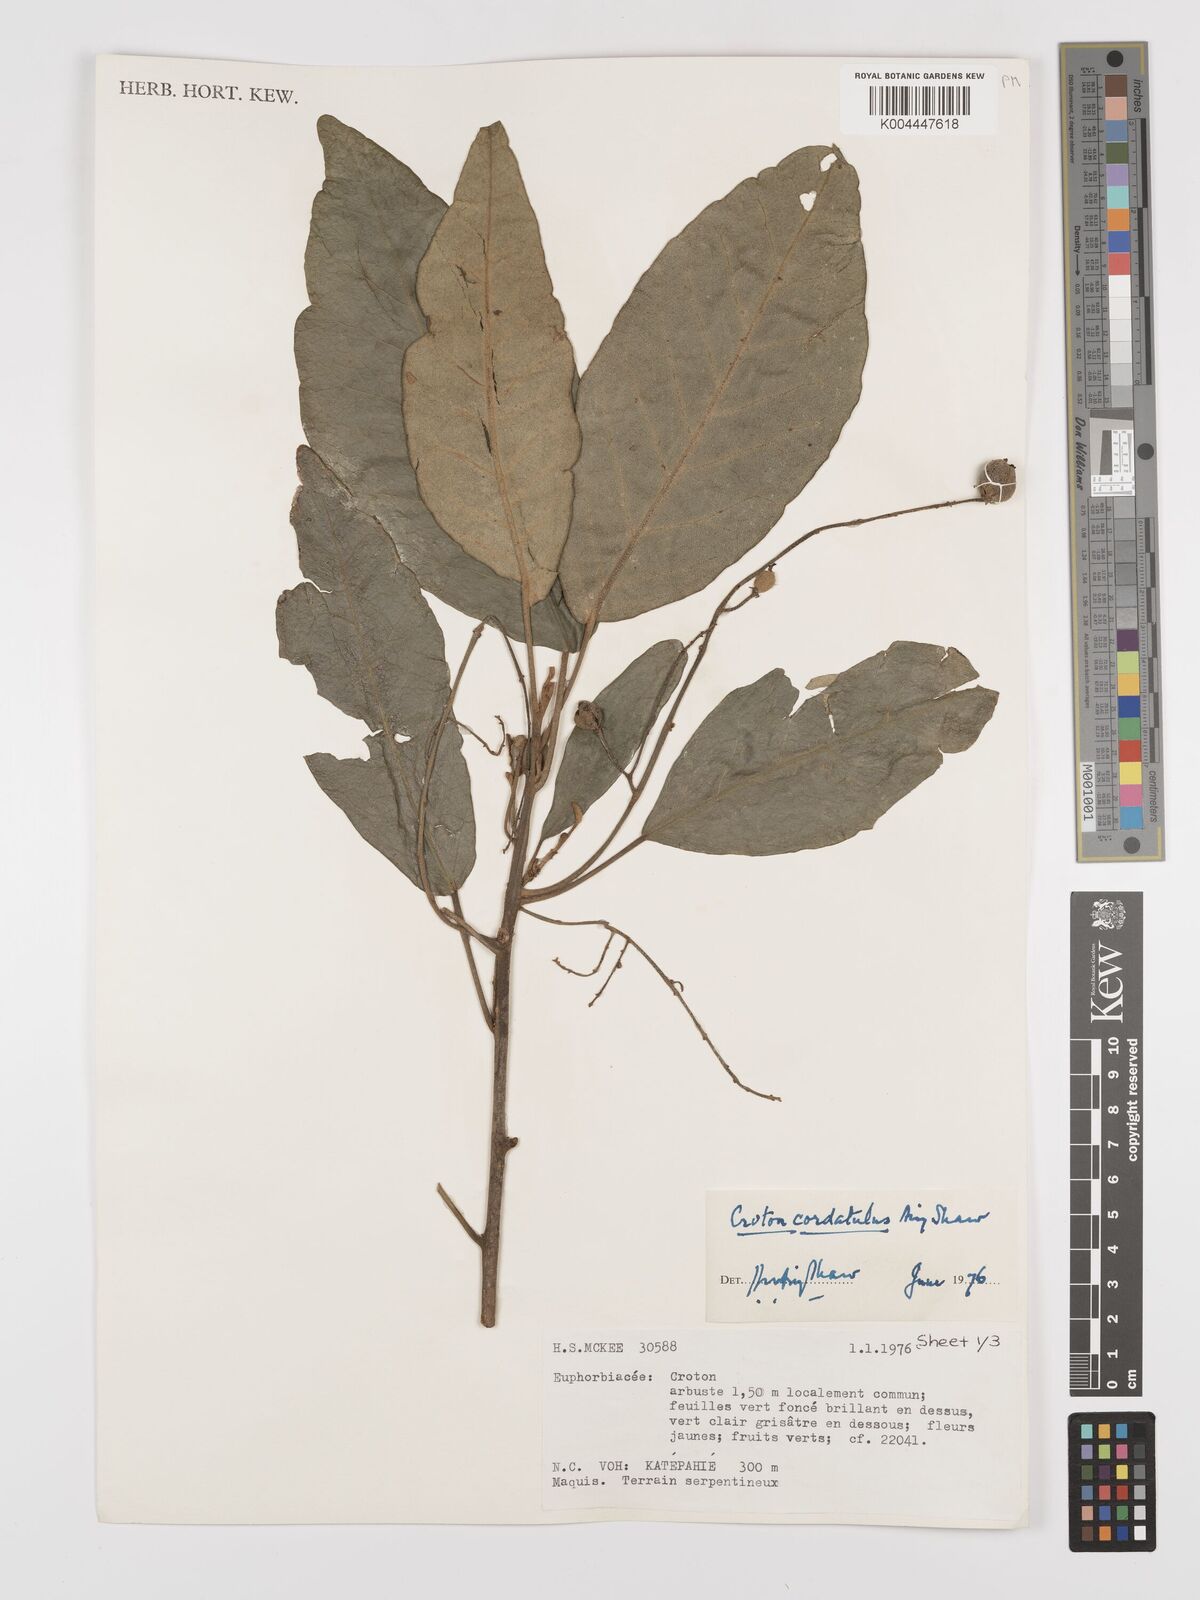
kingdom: Plantae
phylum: Tracheophyta
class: Magnoliopsida
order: Malpighiales
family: Euphorbiaceae
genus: Croton
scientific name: Croton cordatulus
